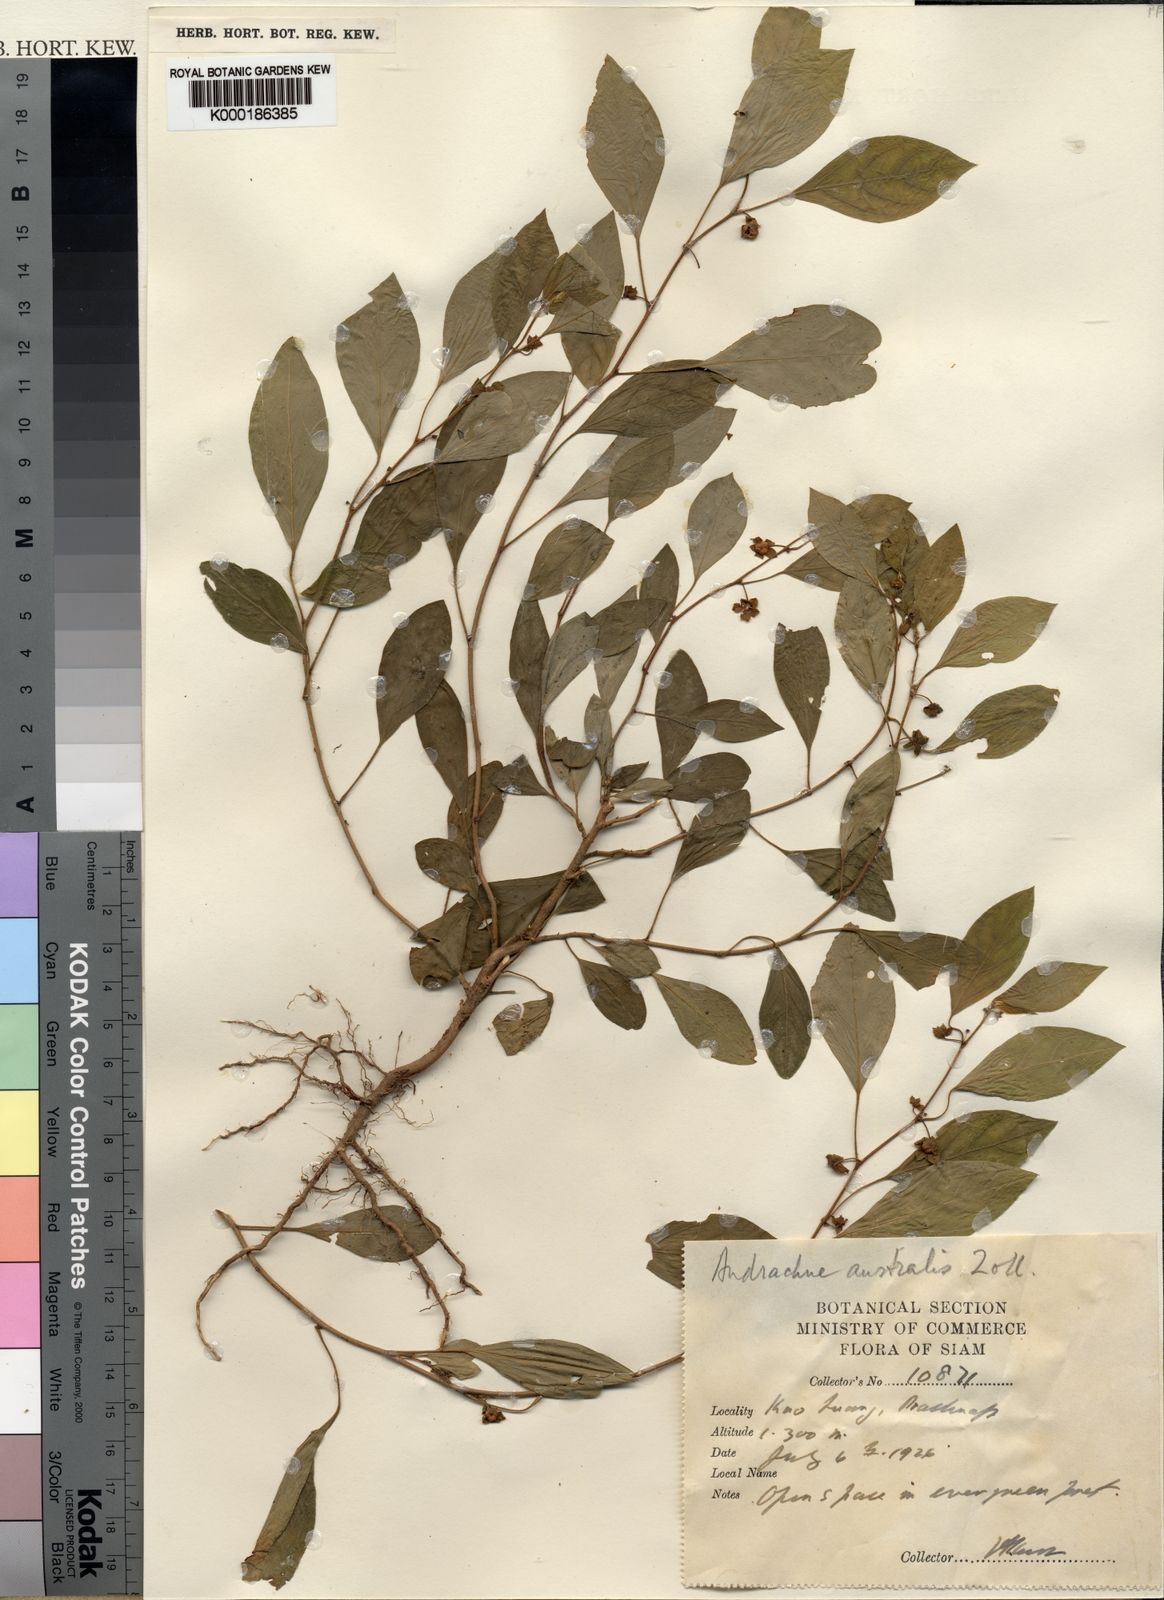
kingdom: Plantae
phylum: Tracheophyta
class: Magnoliopsida
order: Malpighiales
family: Phyllanthaceae
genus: Andrachne
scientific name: Andrachne
